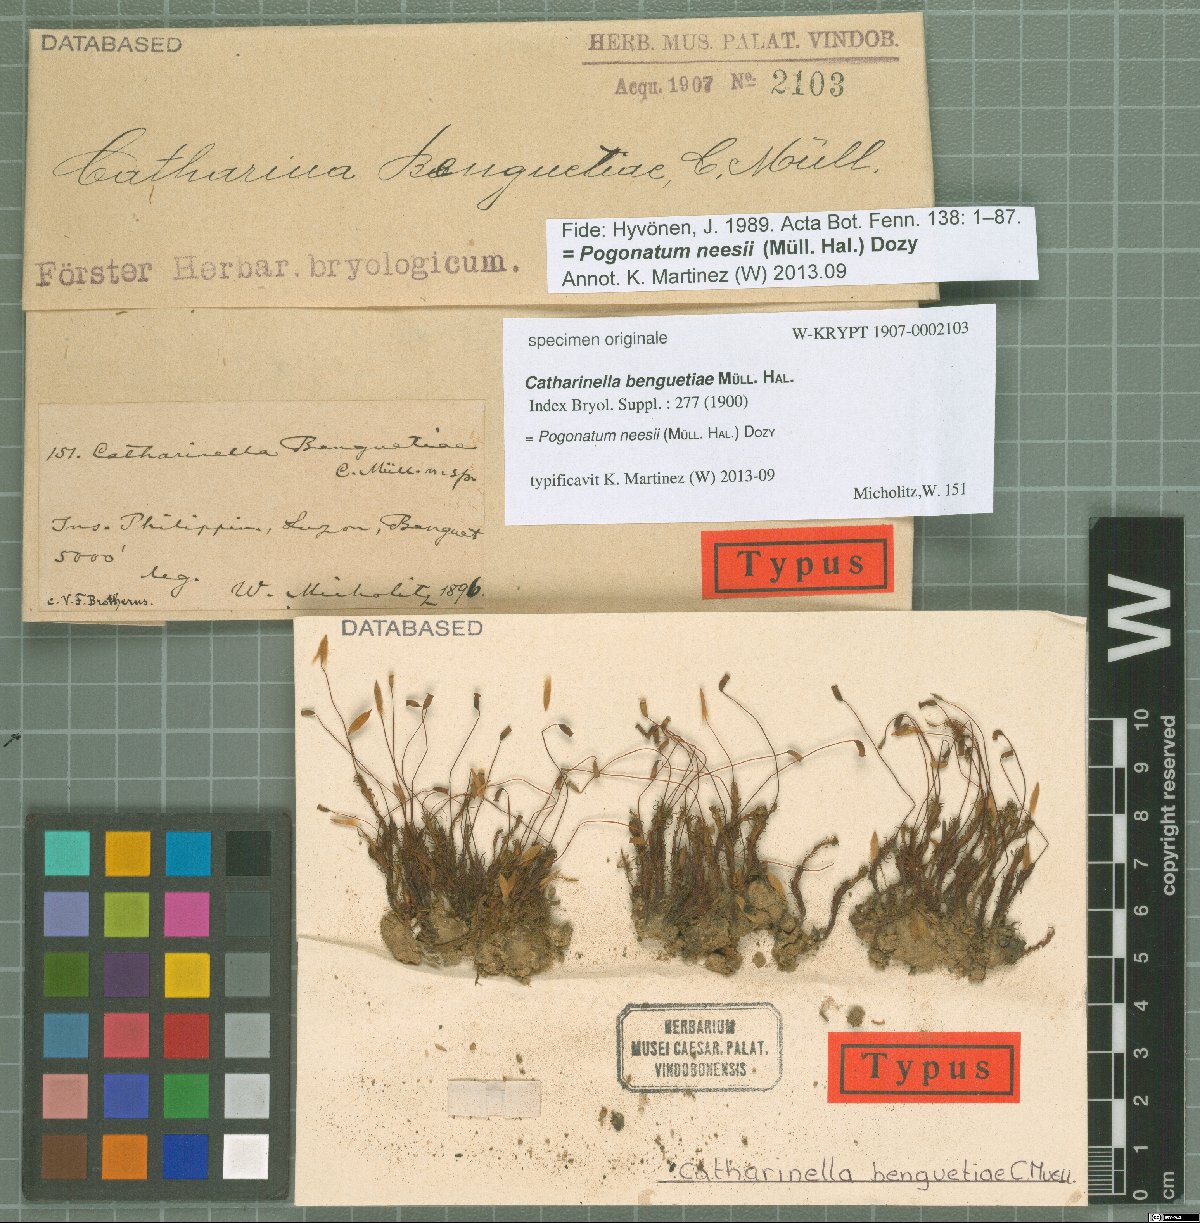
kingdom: Plantae
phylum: Bryophyta
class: Polytrichopsida
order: Polytrichales
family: Polytrichaceae
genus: Pogonatum
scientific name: Pogonatum neesii
